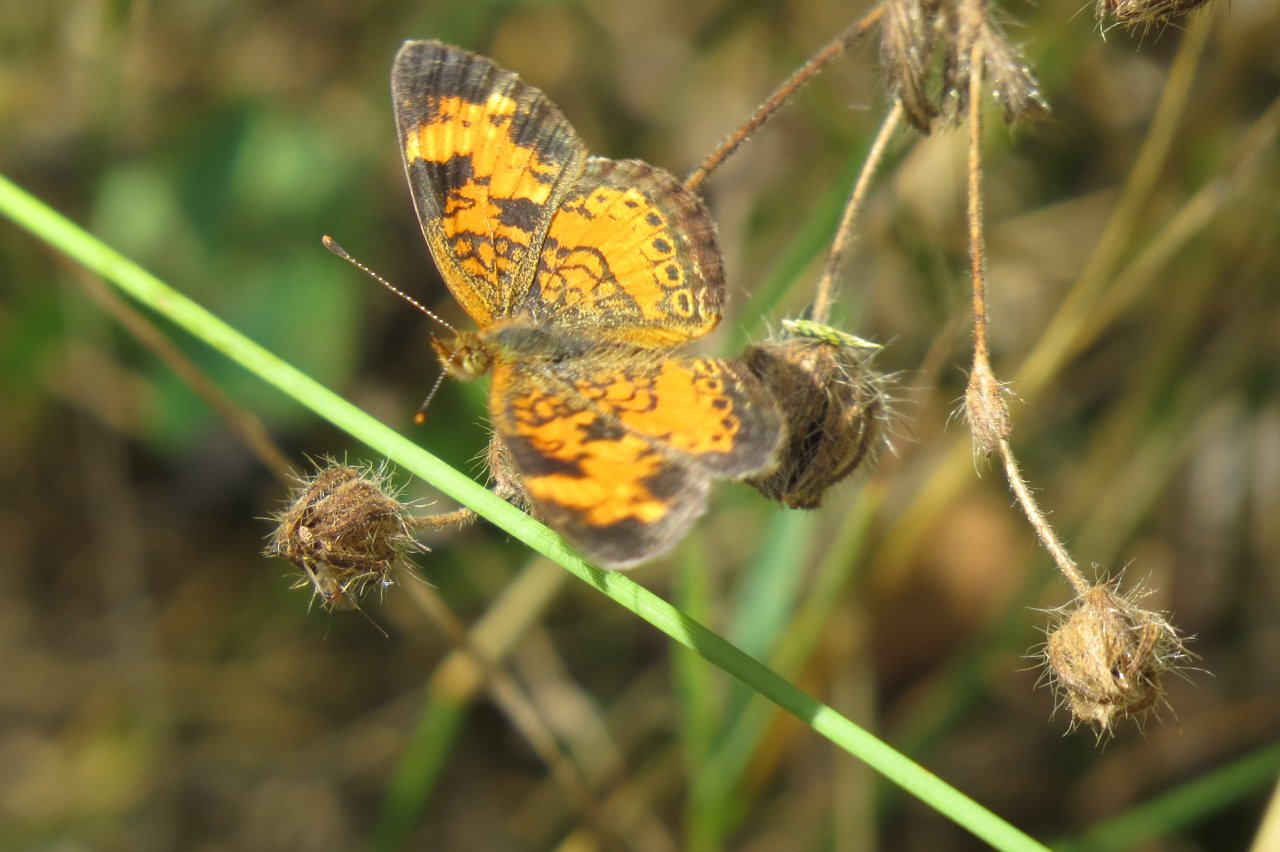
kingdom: Animalia
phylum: Arthropoda
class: Insecta
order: Lepidoptera
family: Nymphalidae
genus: Phyciodes
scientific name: Phyciodes tharos
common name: Northern Crescent
